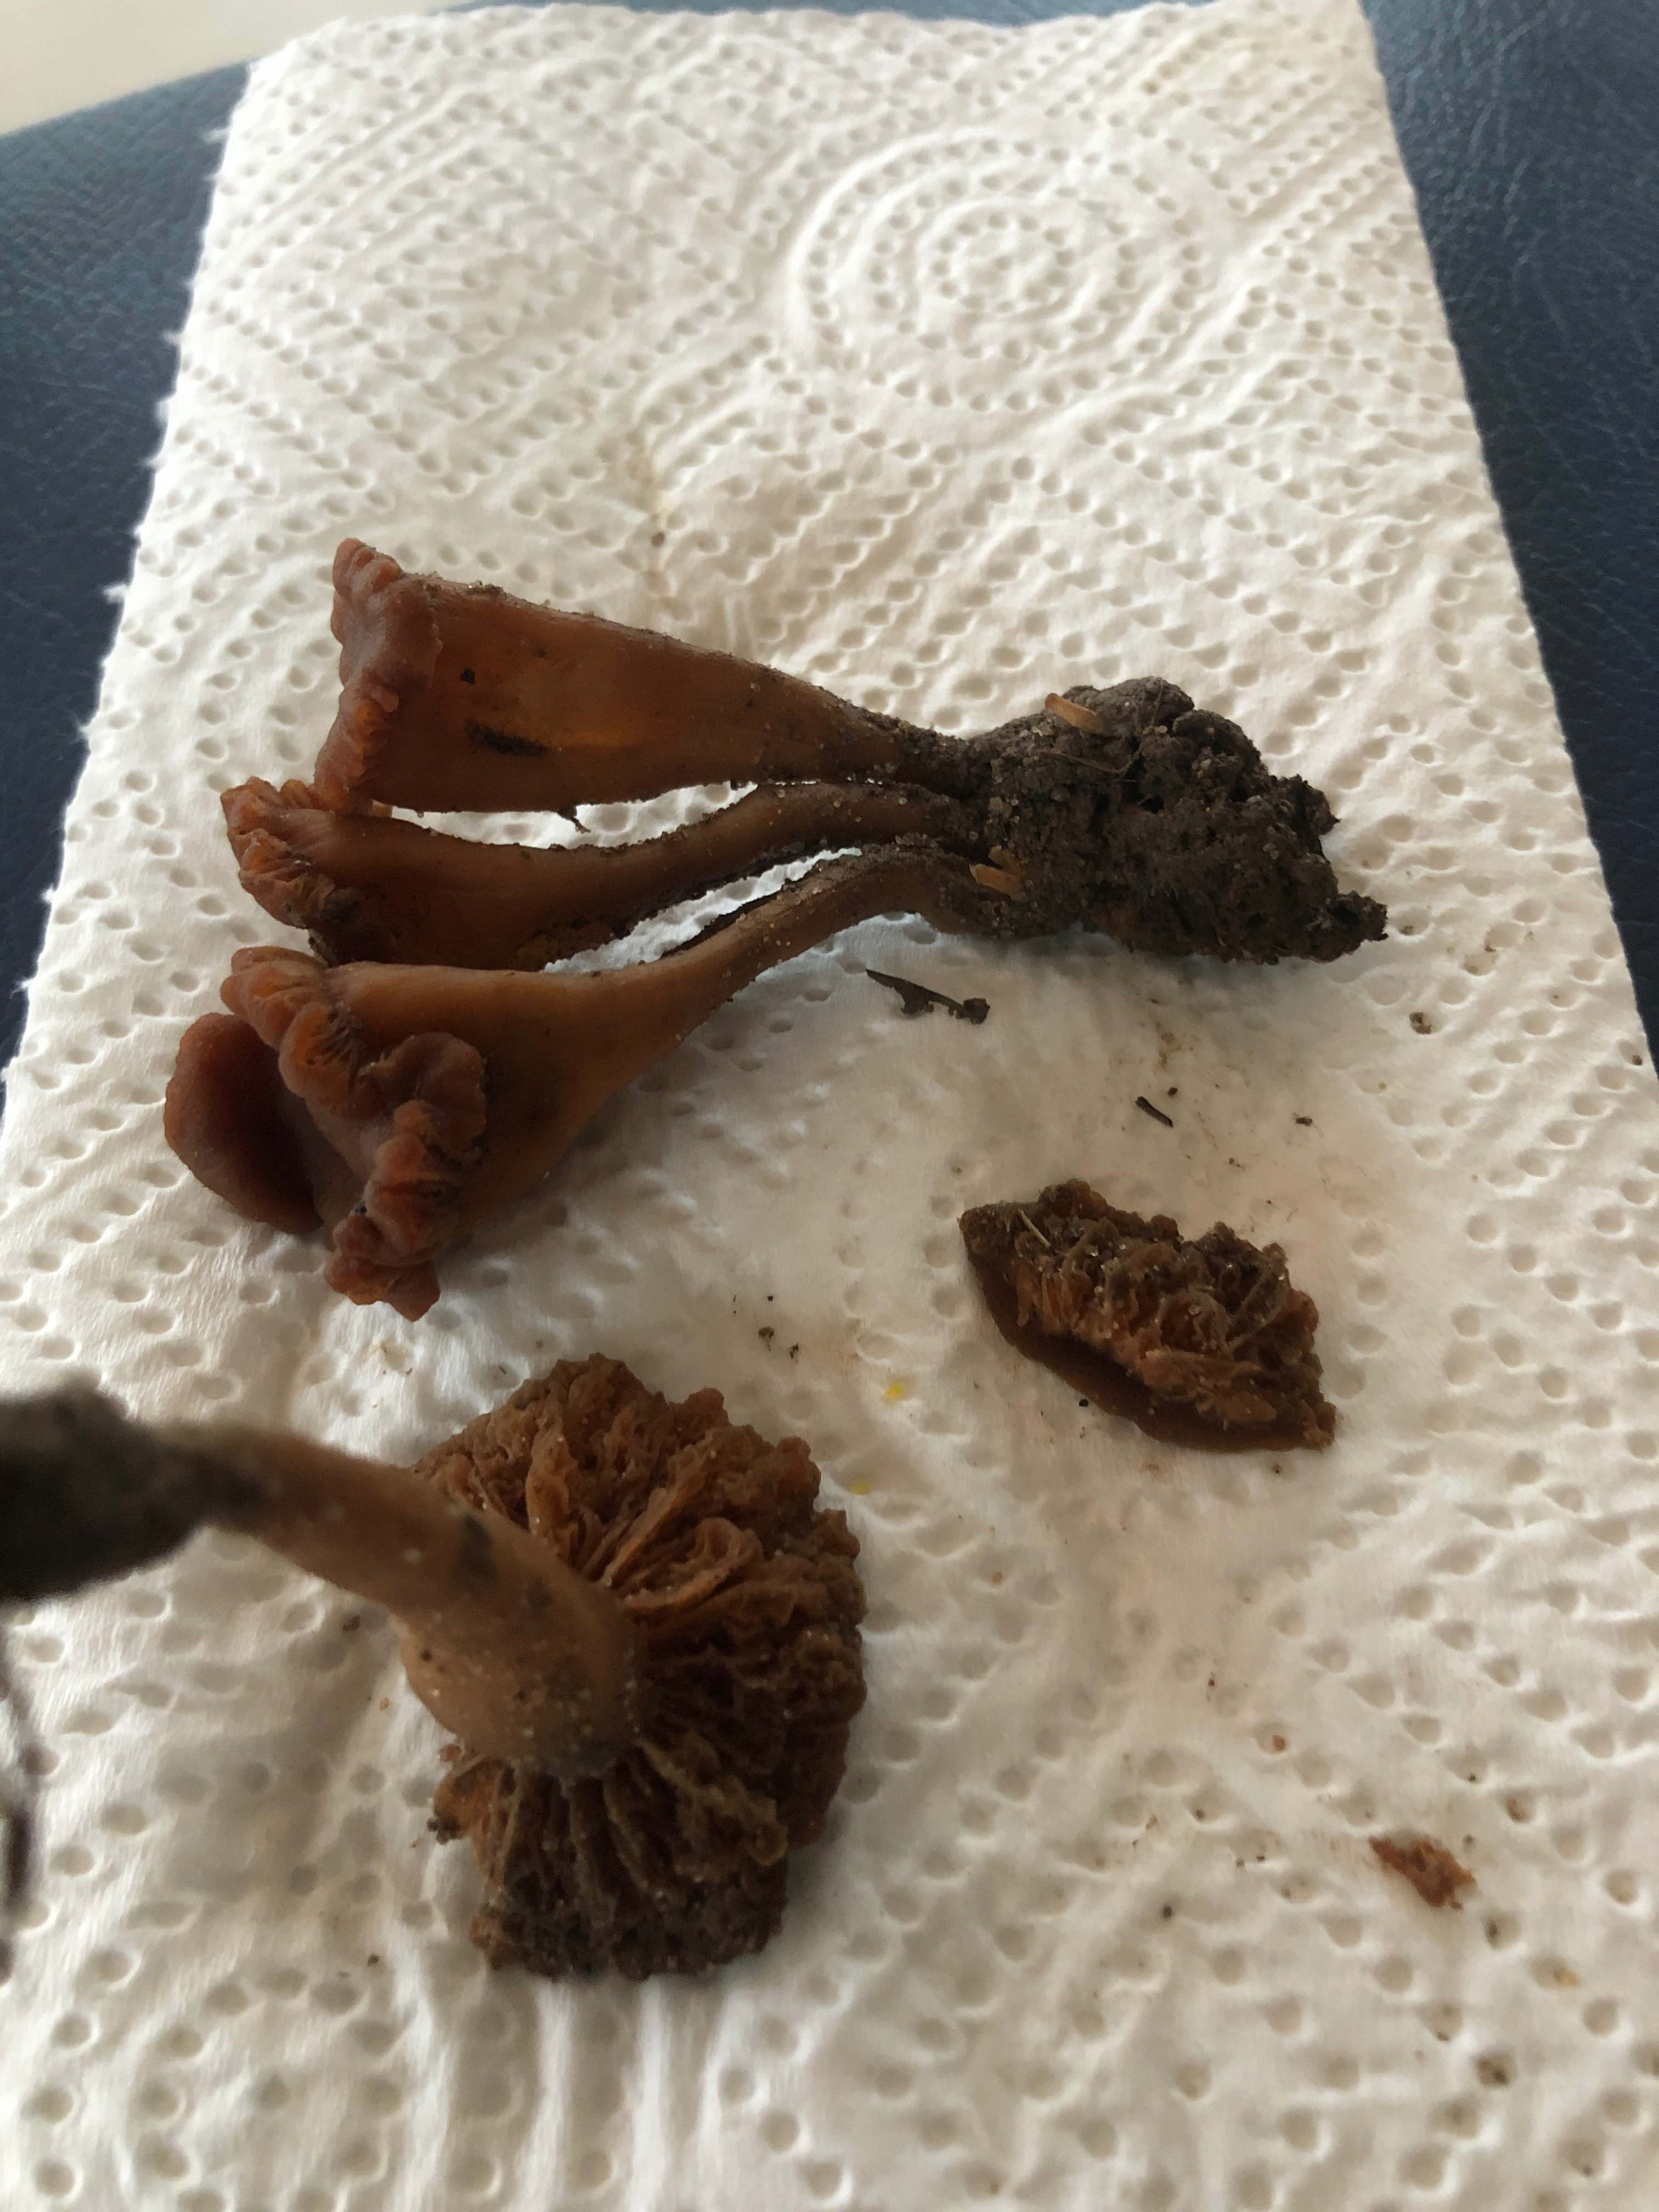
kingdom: Fungi
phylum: Basidiomycota
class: Agaricomycetes
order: Agaricales
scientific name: Agaricales
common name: champignonordenen
